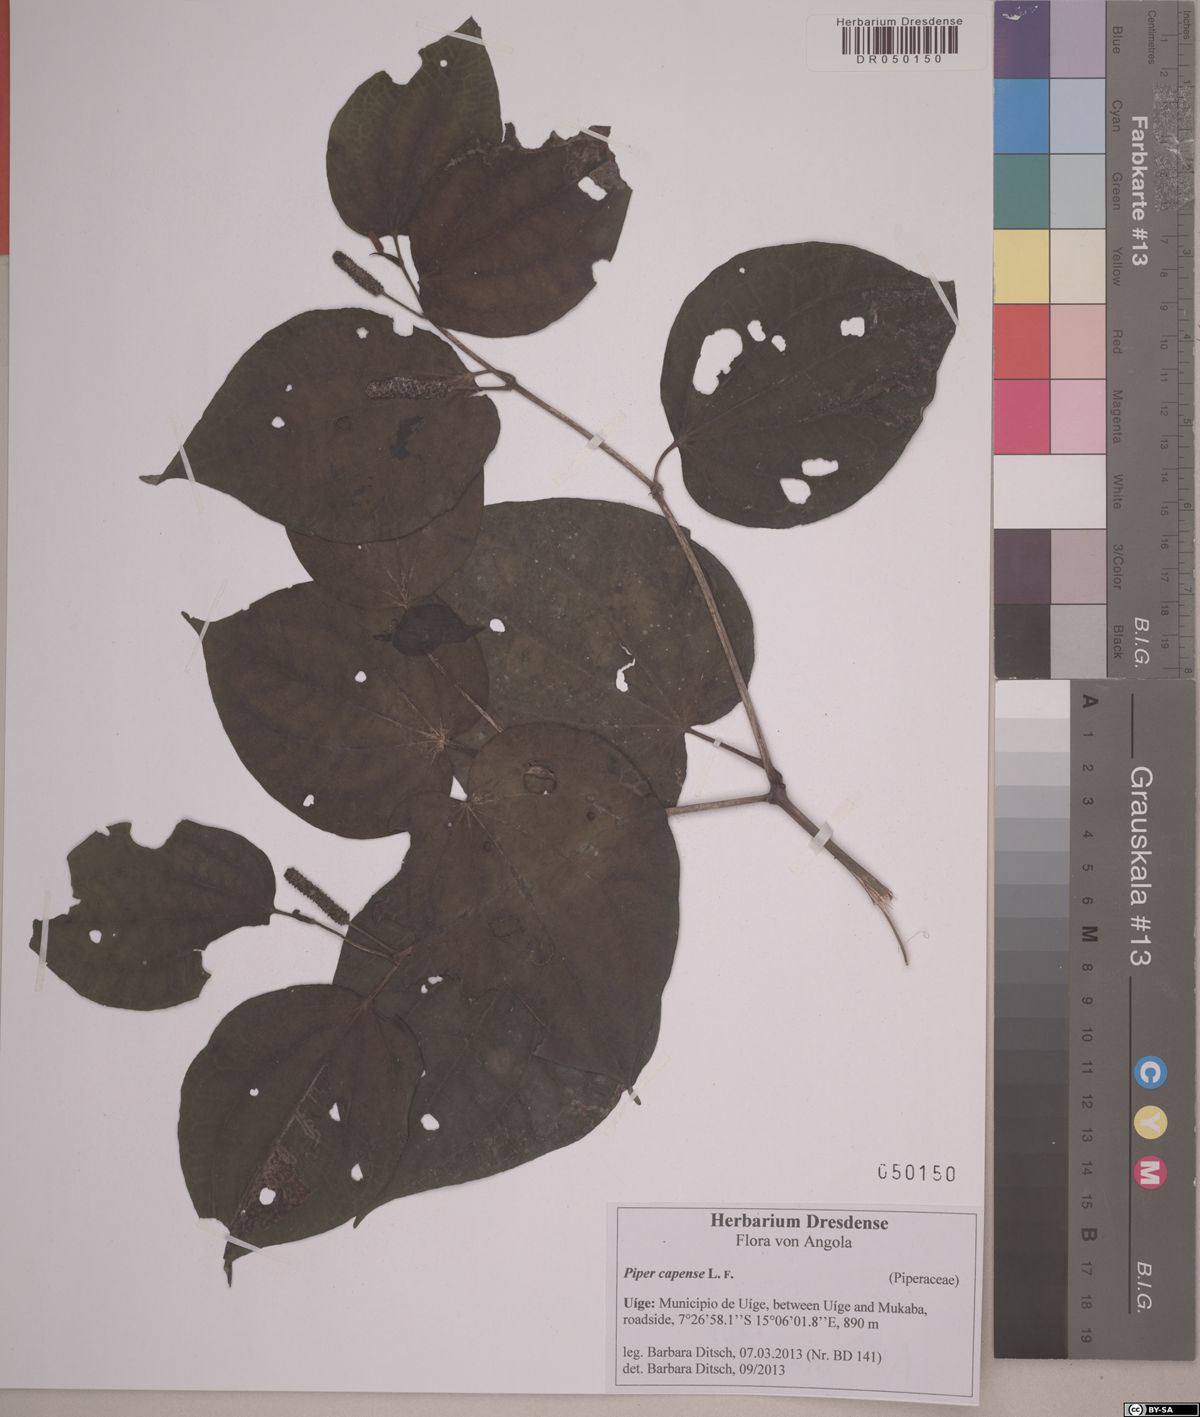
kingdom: Plantae
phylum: Tracheophyta
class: Magnoliopsida
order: Piperales
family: Piperaceae
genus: Piper
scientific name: Piper capense
